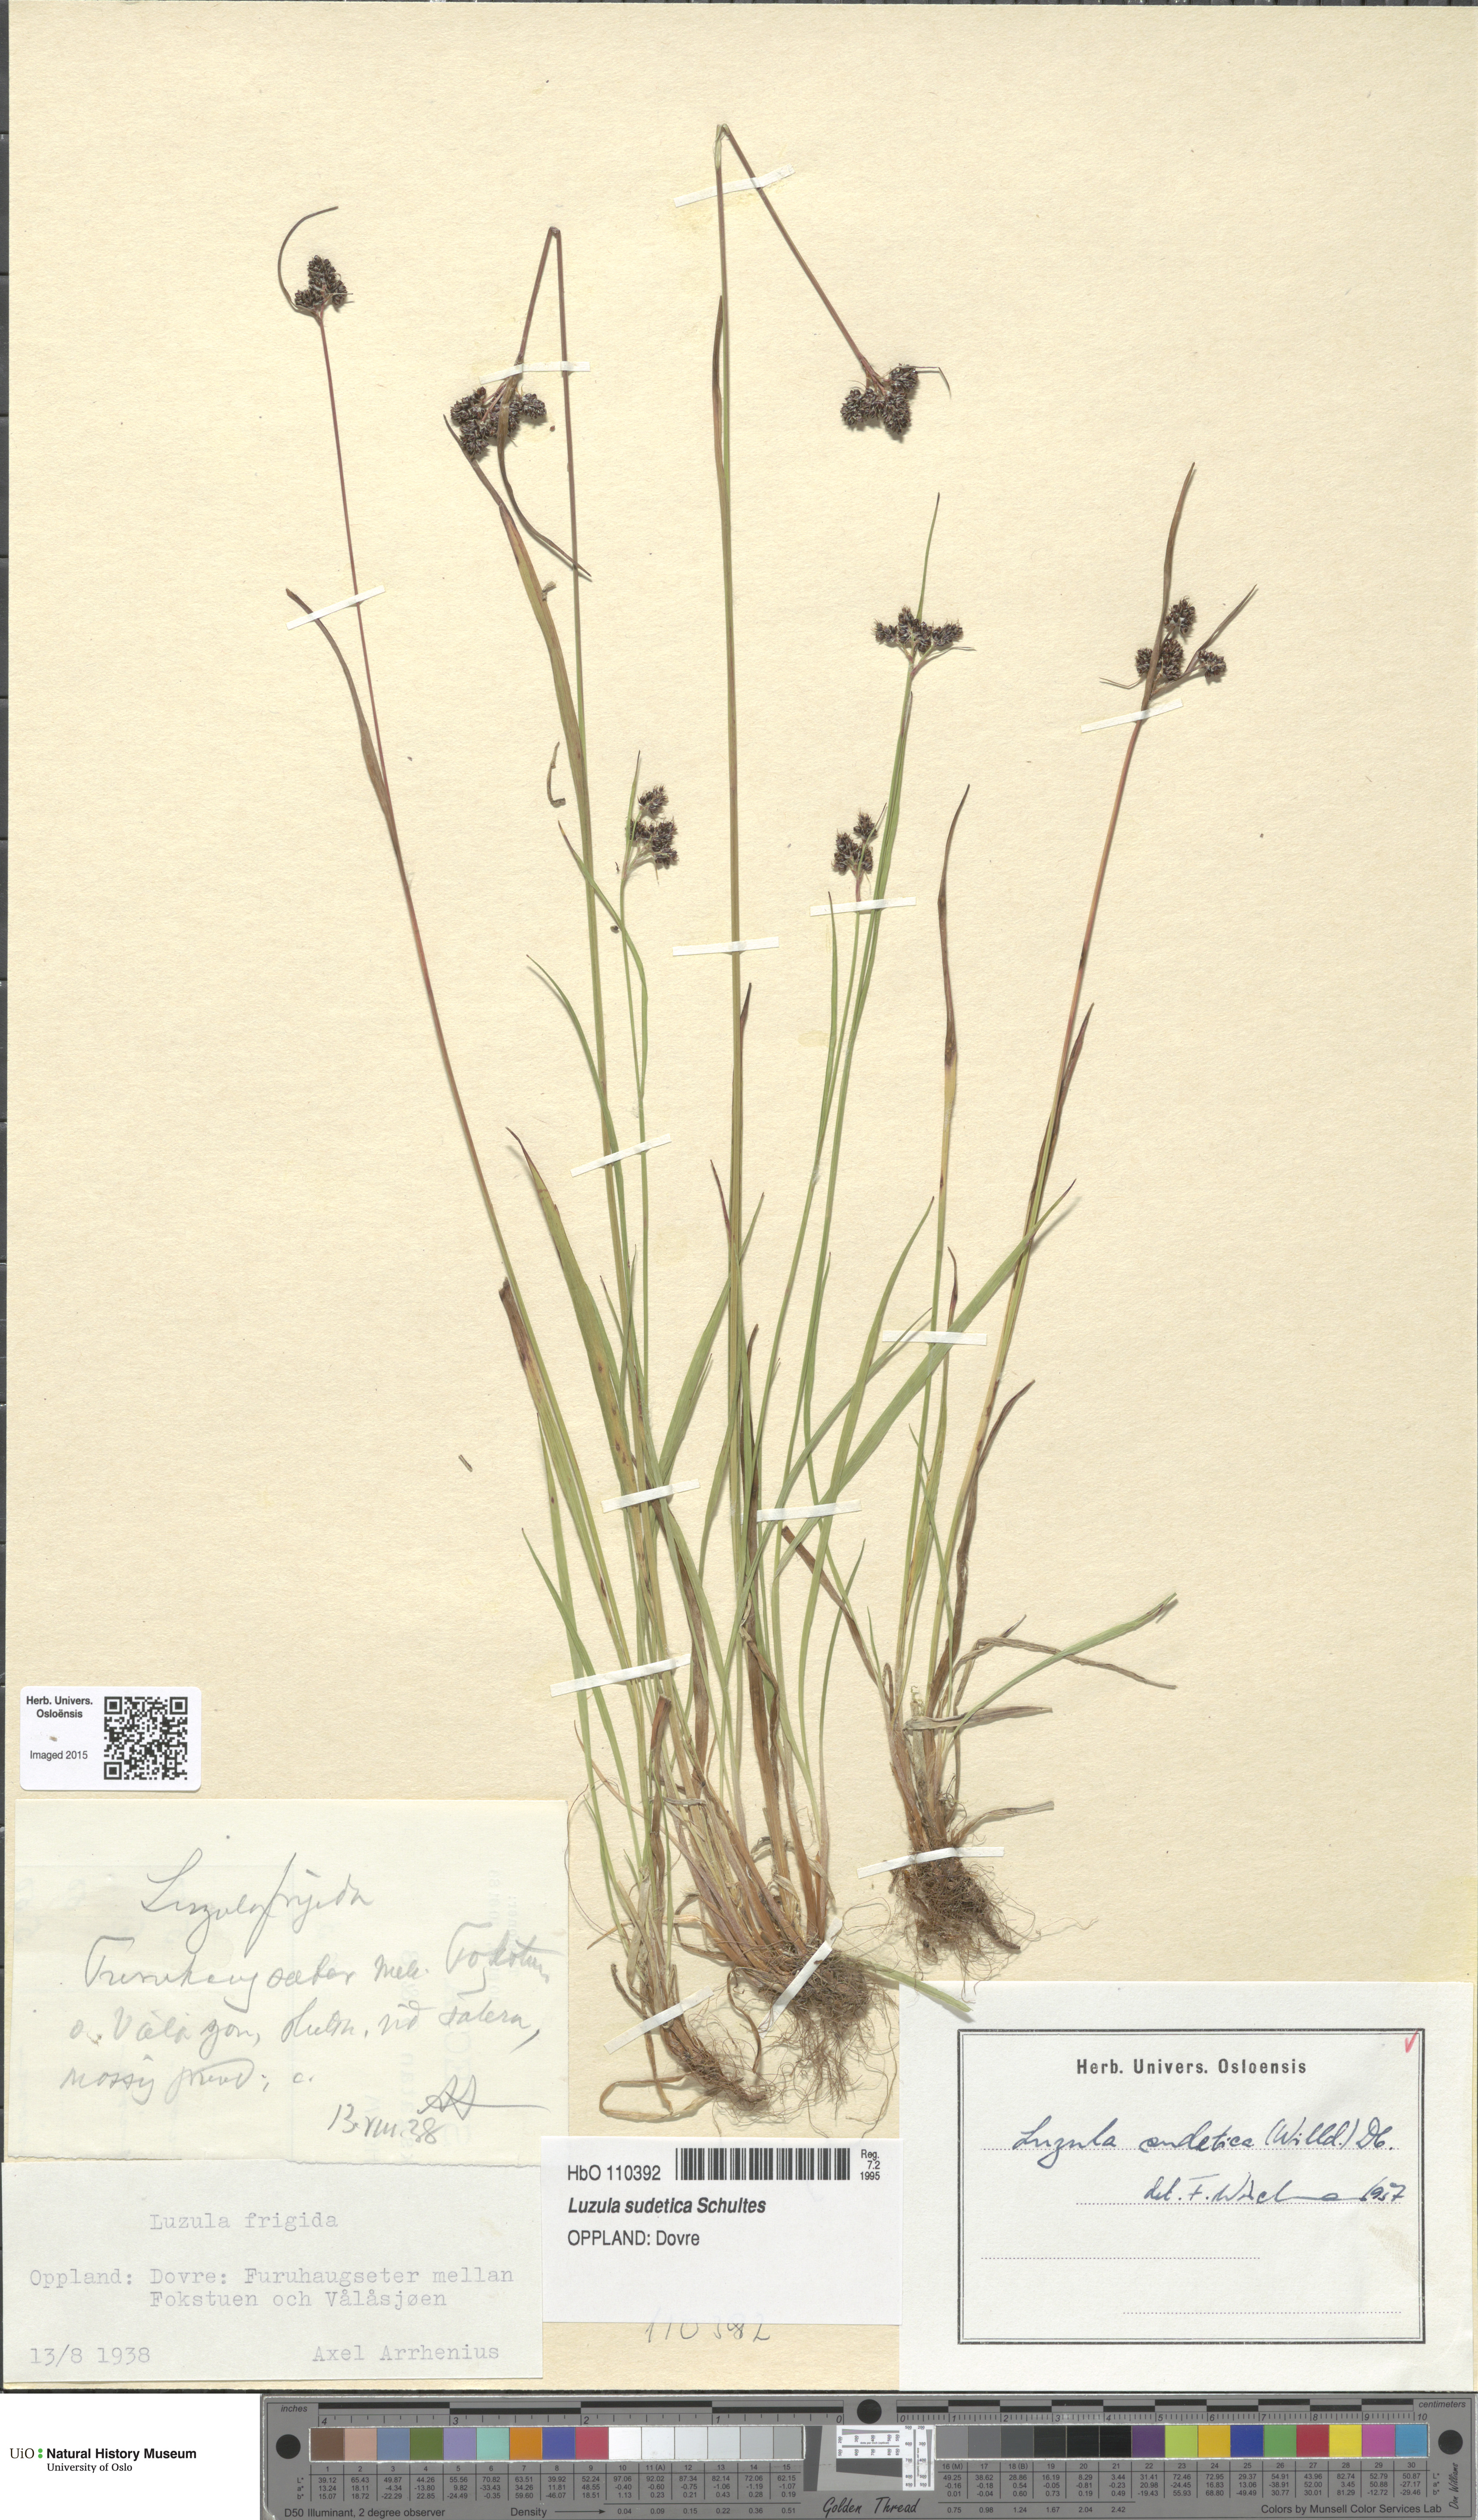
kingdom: Plantae
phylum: Tracheophyta
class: Liliopsida
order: Poales
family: Juncaceae
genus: Luzula
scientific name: Luzula sudetica
